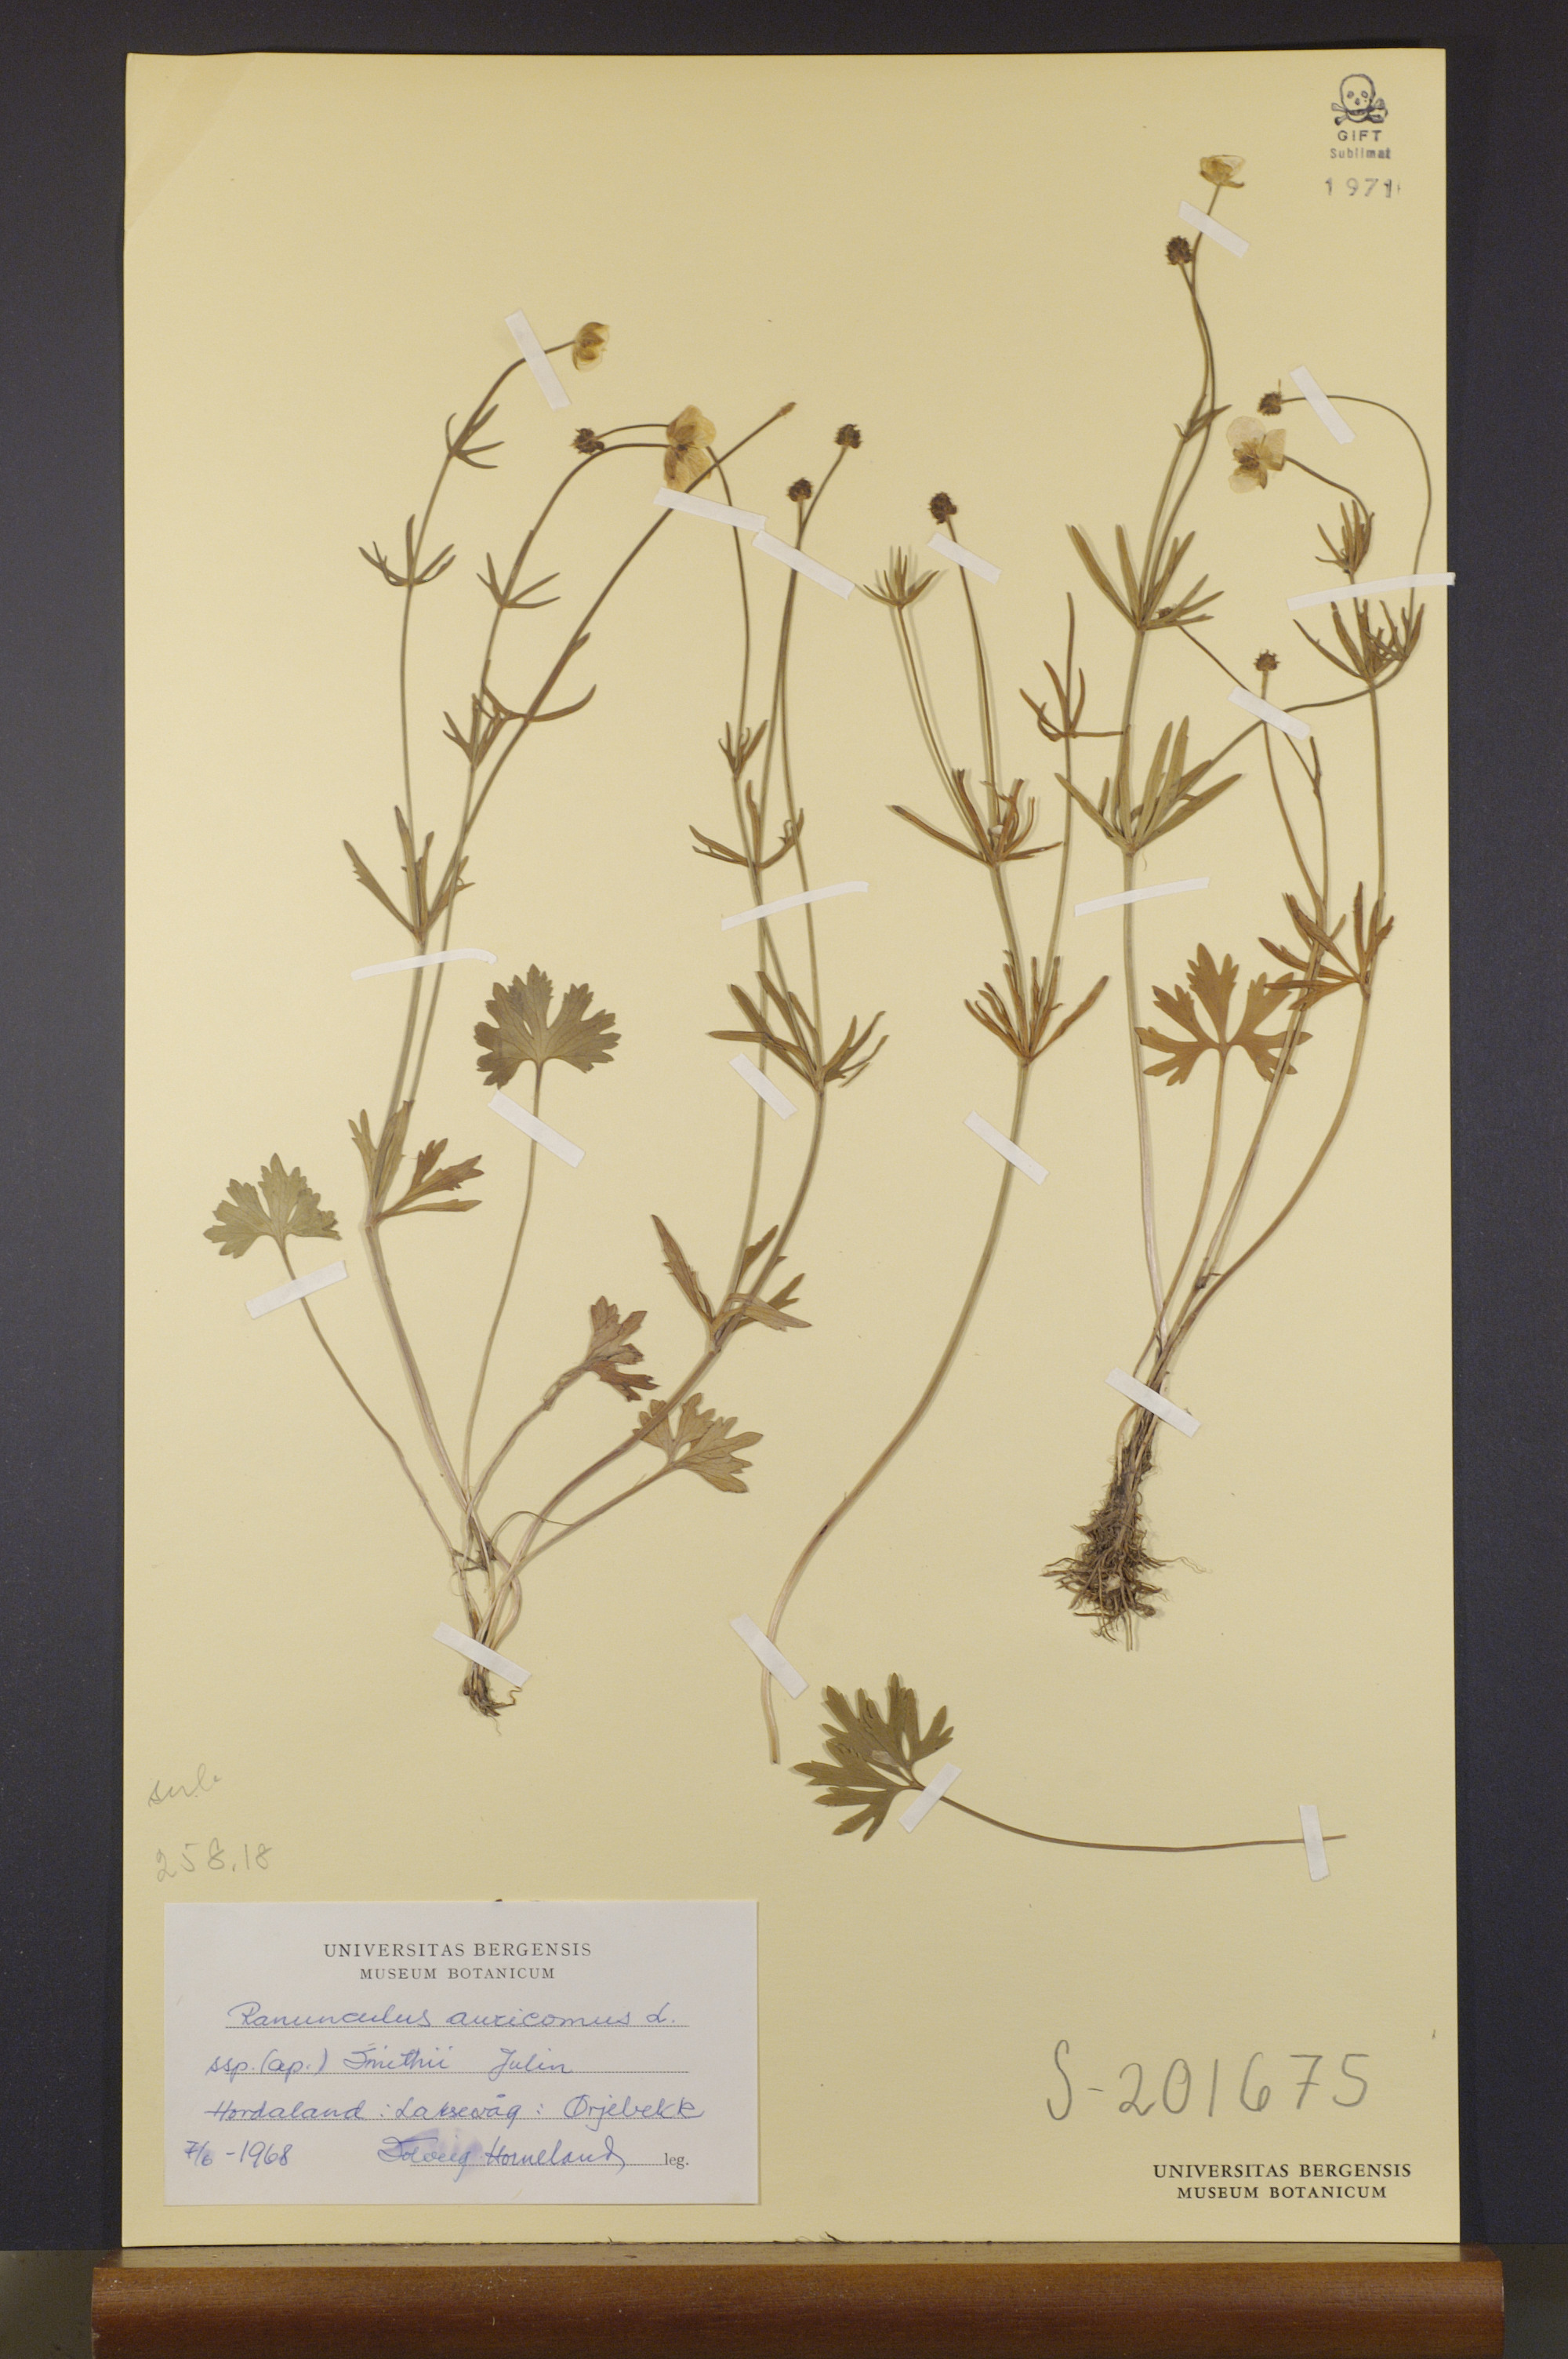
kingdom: Plantae
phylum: Tracheophyta
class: Magnoliopsida
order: Ranunculales
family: Ranunculaceae
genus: Ranunculus
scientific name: Ranunculus pulchridentatus
